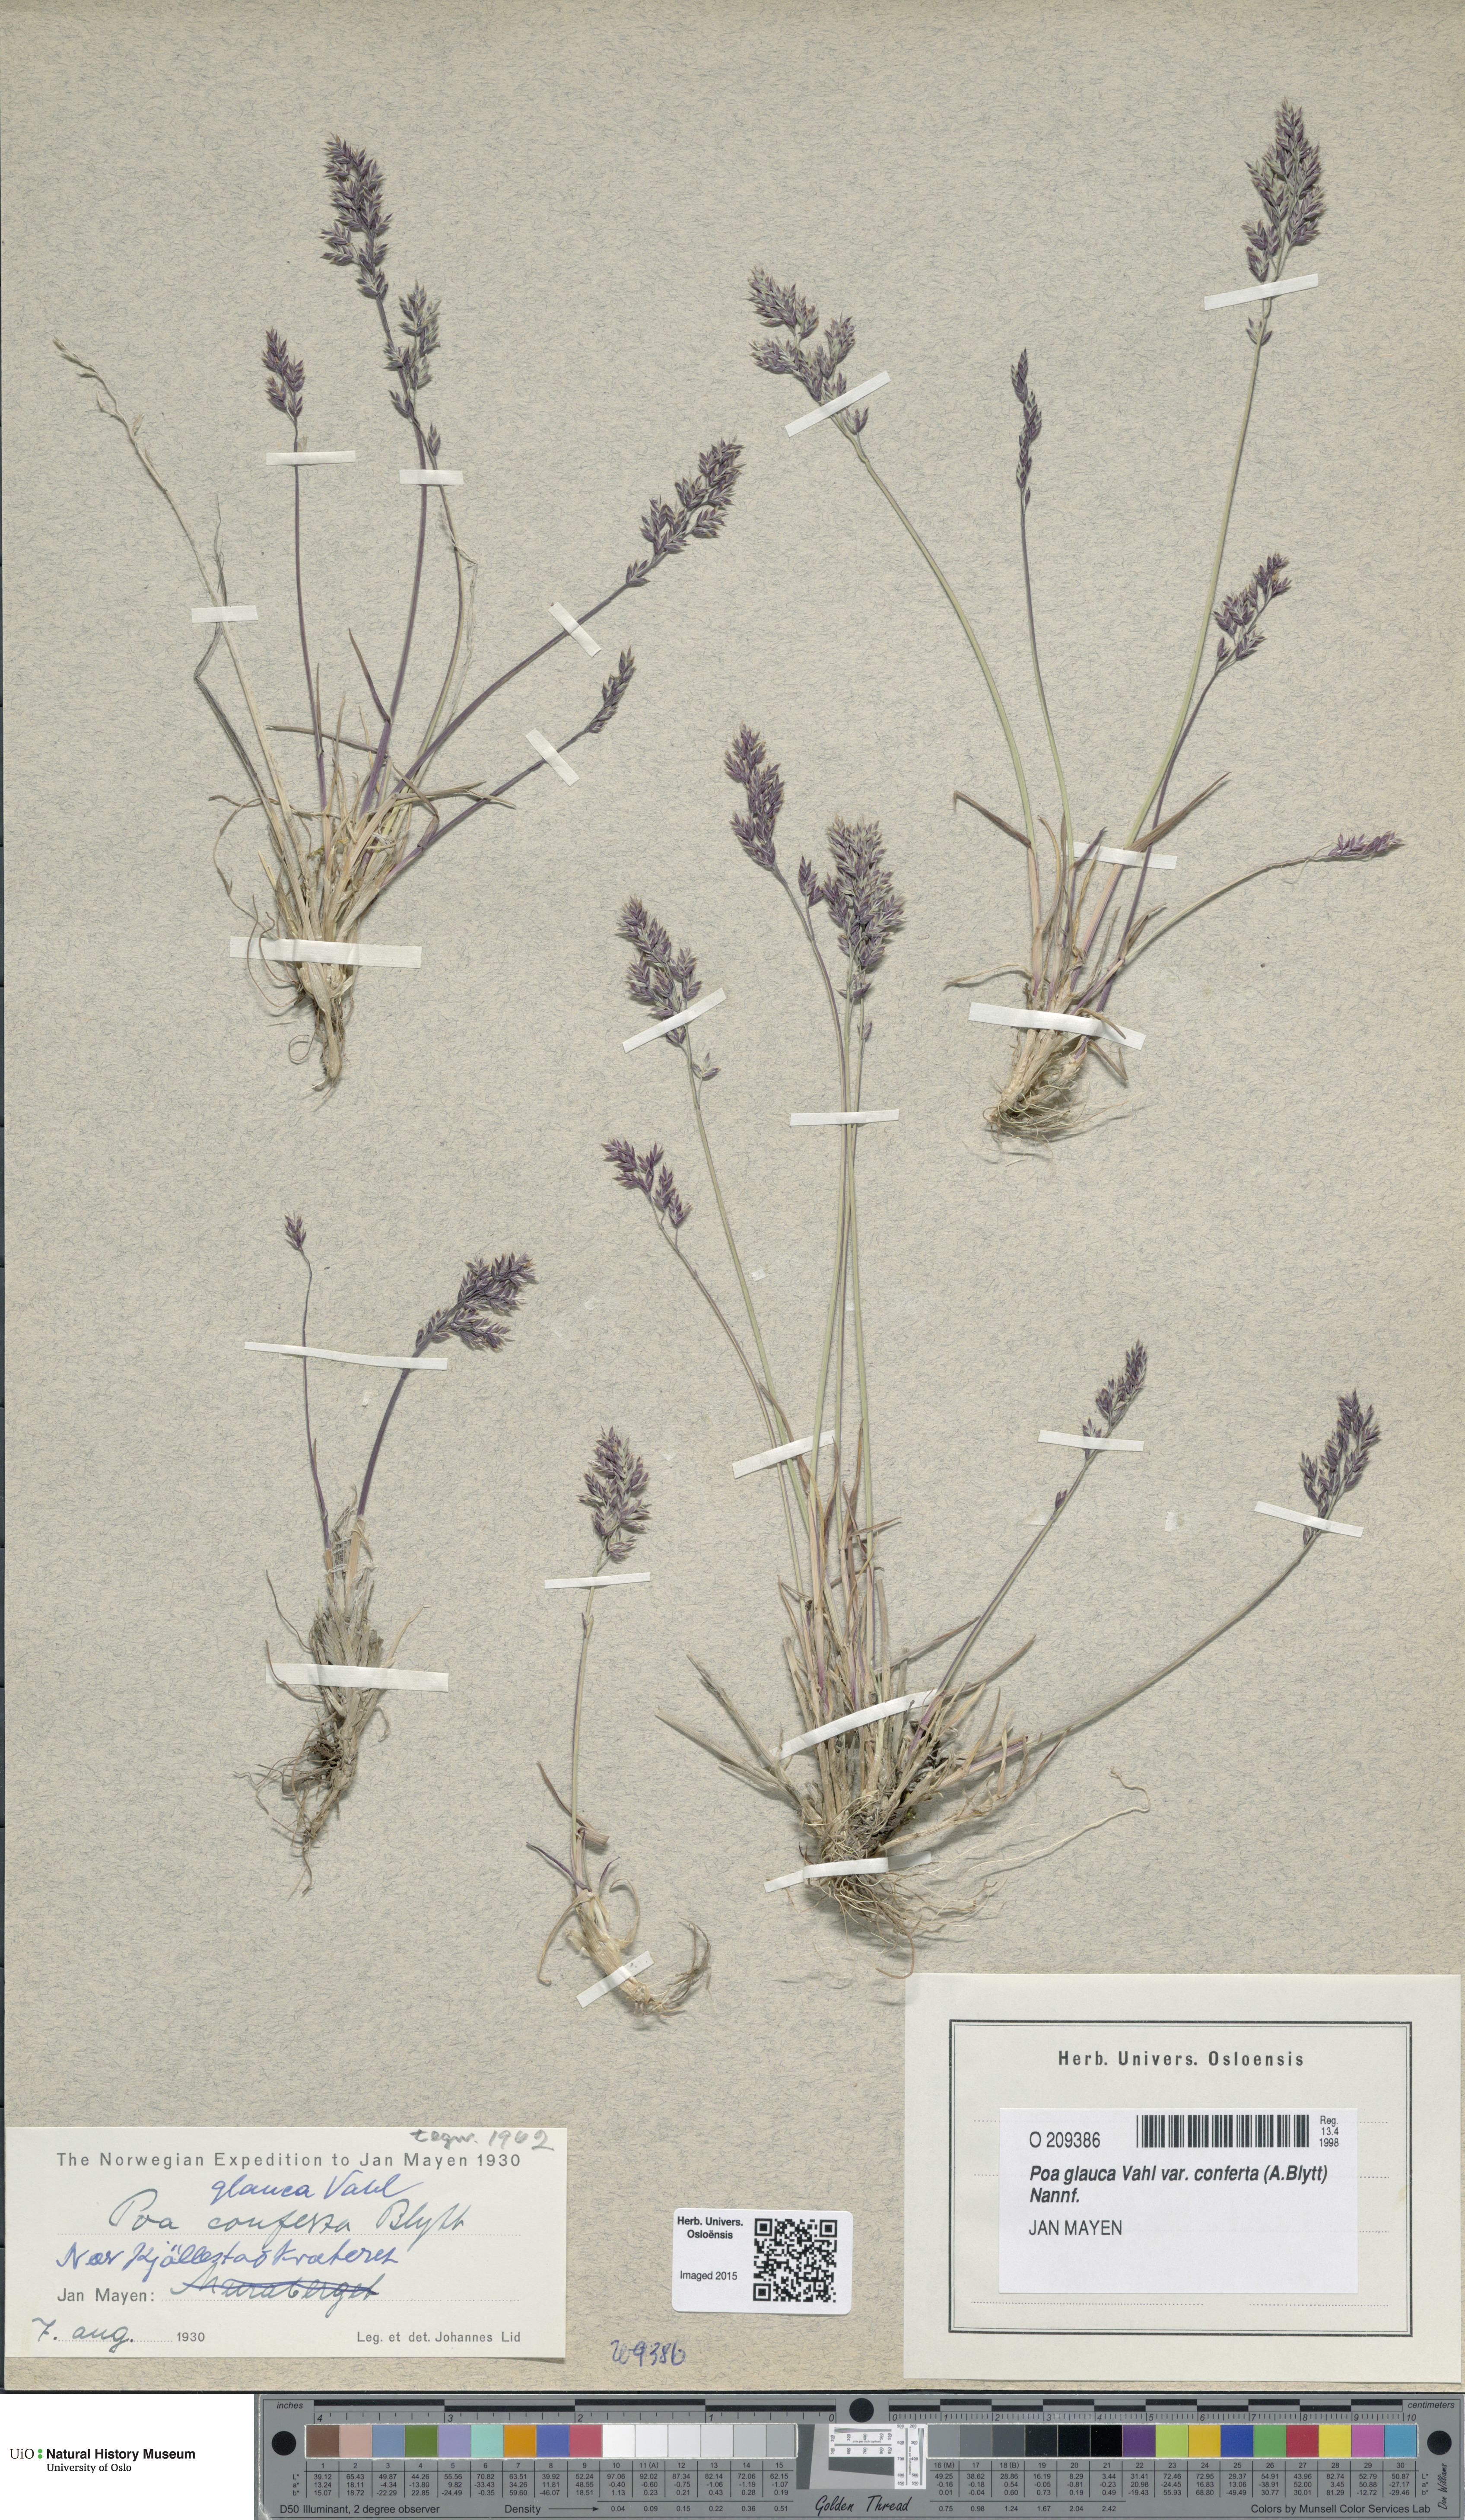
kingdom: Plantae
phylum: Tracheophyta
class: Liliopsida
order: Poales
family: Poaceae
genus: Poa
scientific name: Poa glauca
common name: Glaucous bluegrass
